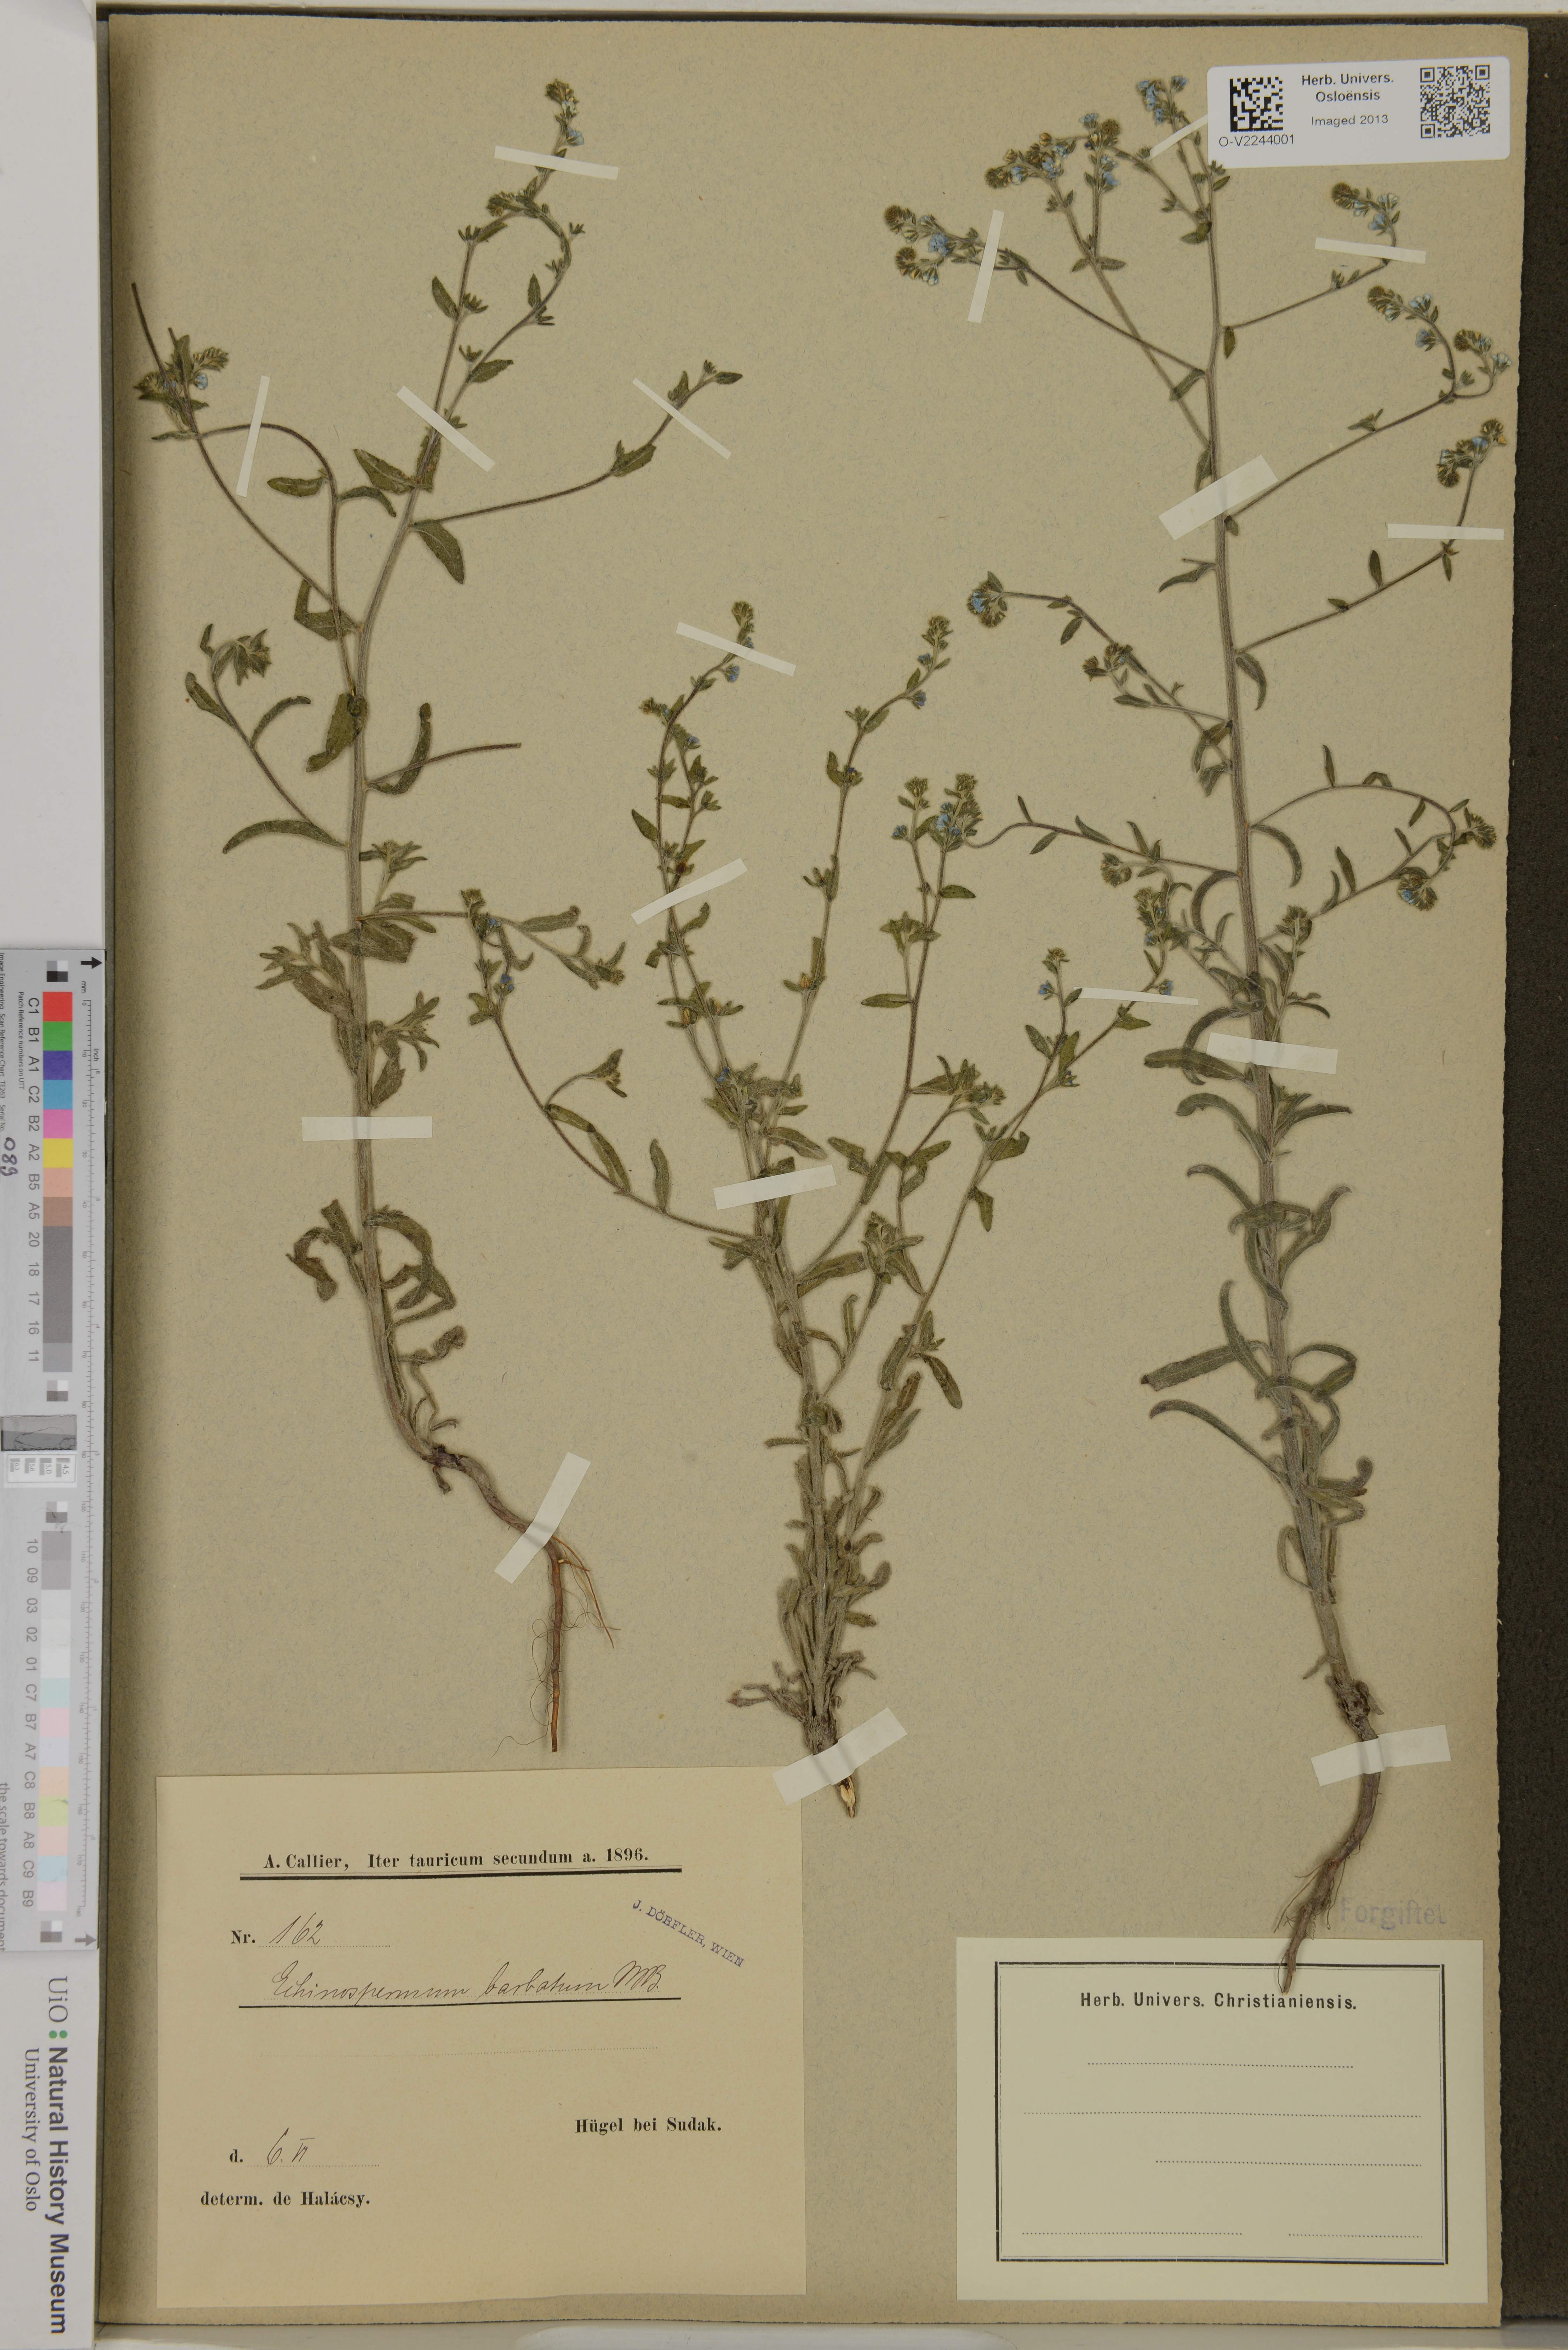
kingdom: Plantae
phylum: Tracheophyta
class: Magnoliopsida
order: Boraginales
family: Boraginaceae
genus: Lappula
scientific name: Lappula barbata
